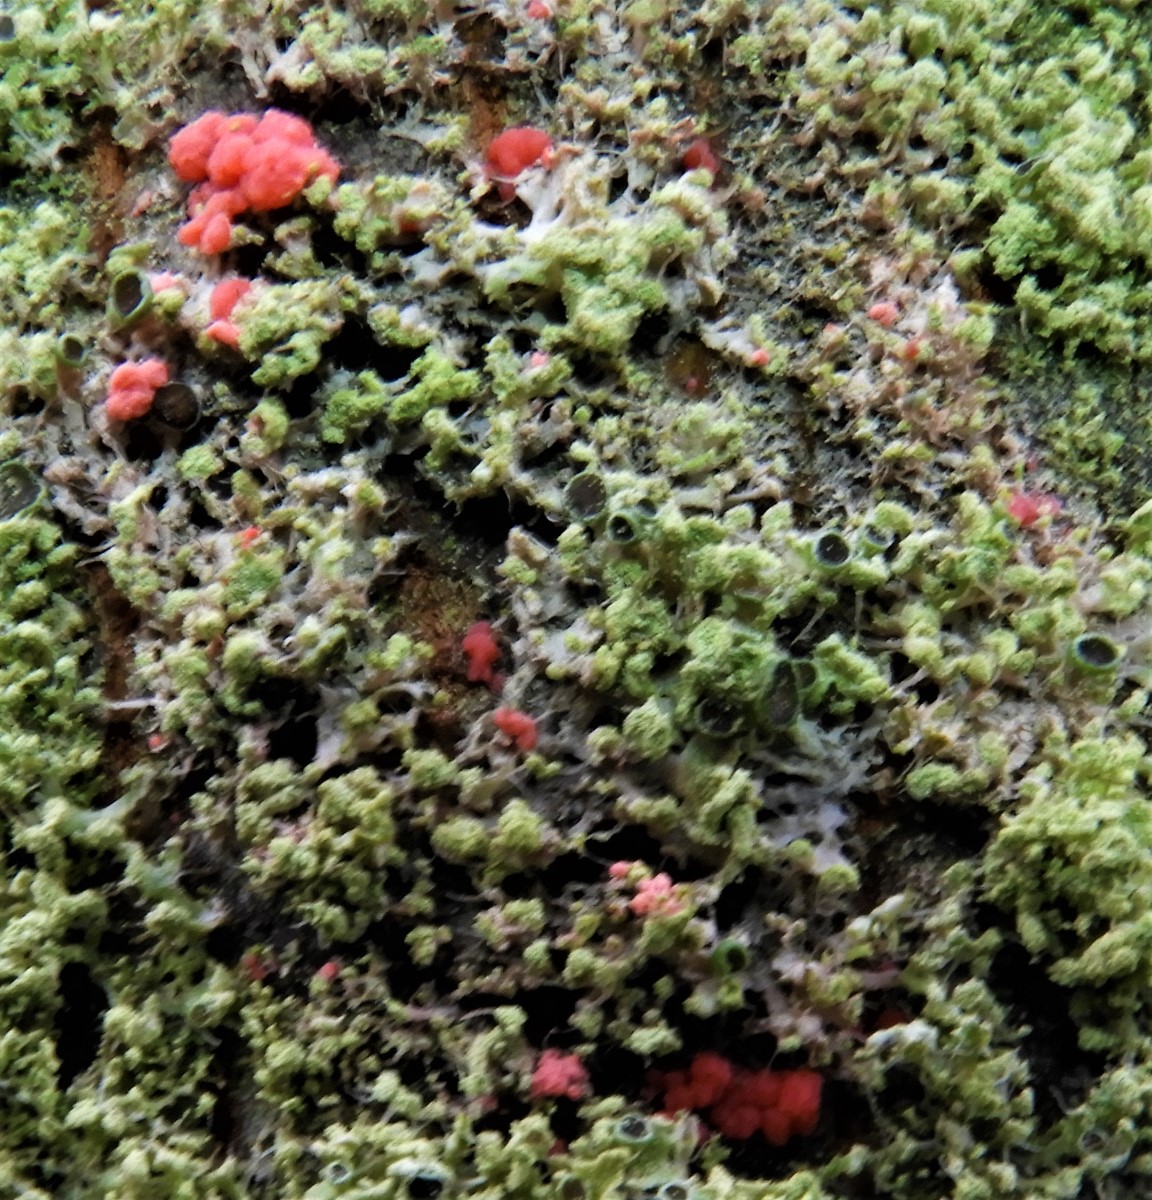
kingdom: Fungi
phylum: Ascomycota
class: Sordariomycetes
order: Hypocreales
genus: Illosporiopsis
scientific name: Illosporiopsis christiansenii
